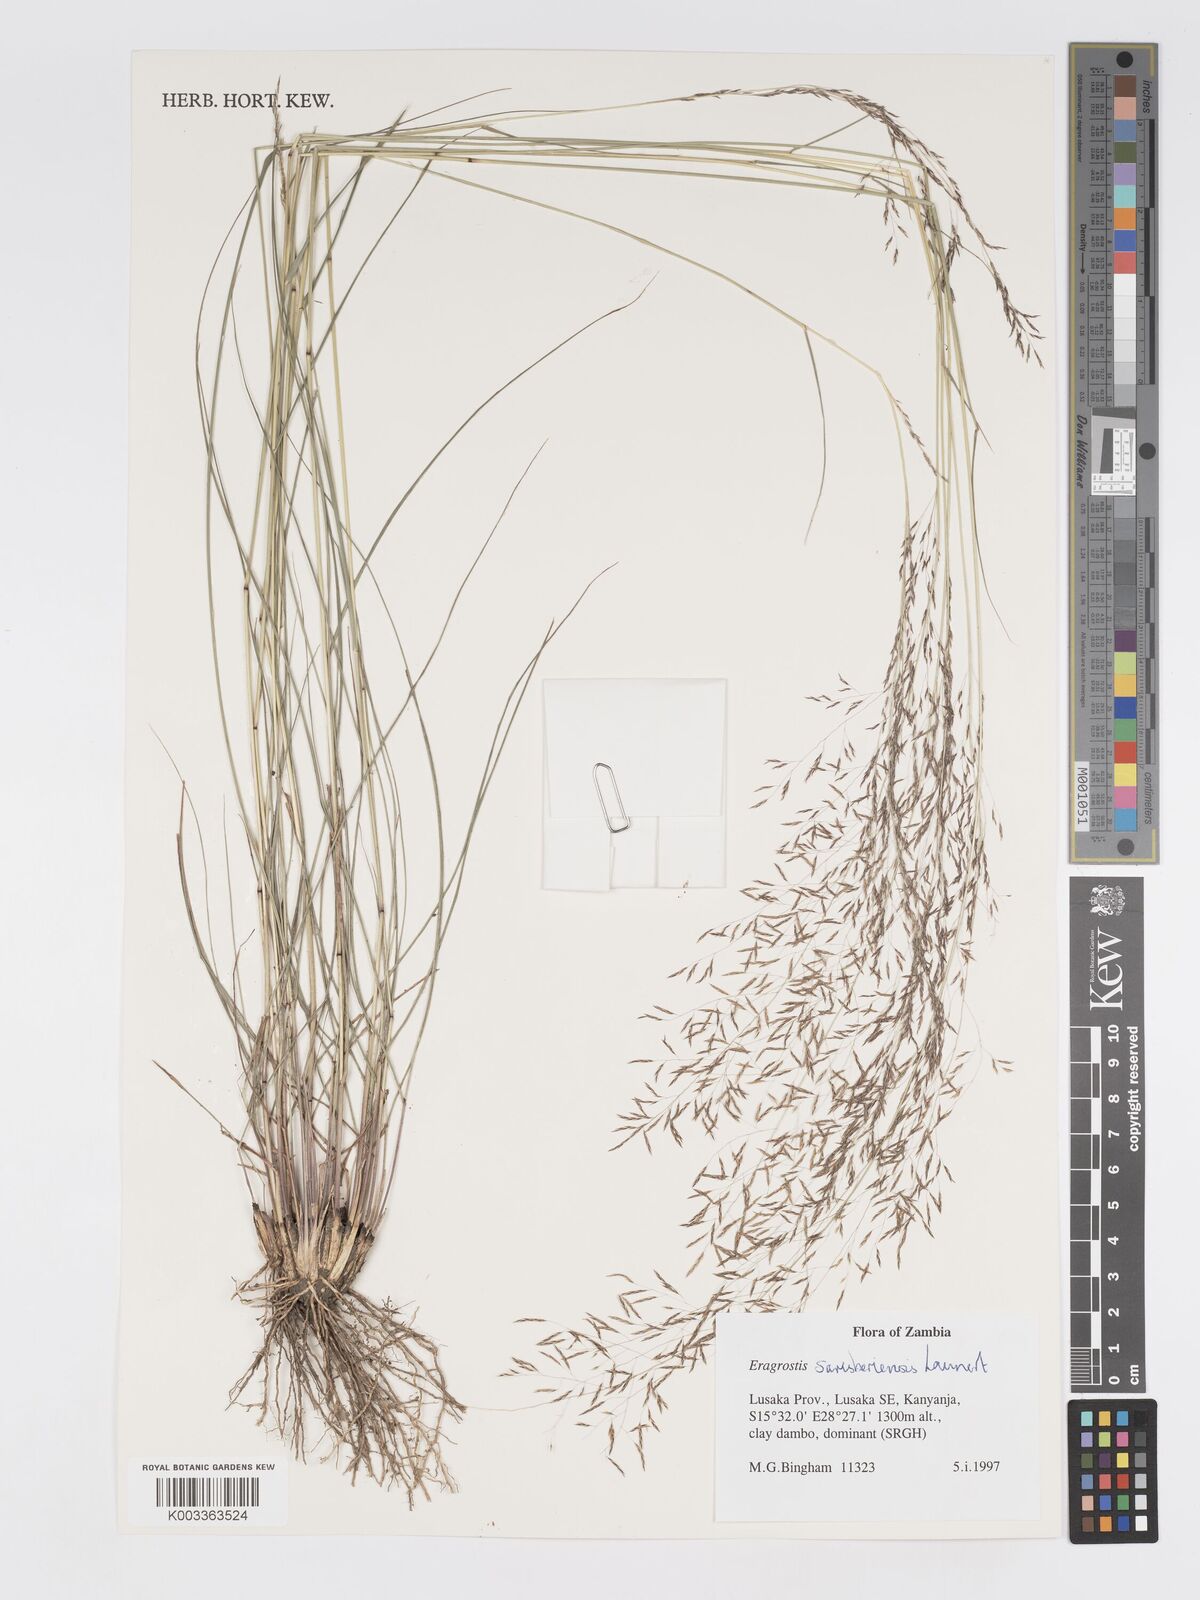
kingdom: Plantae
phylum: Tracheophyta
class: Liliopsida
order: Poales
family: Poaceae
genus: Eragrostis
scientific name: Eragrostis saresberiensis
